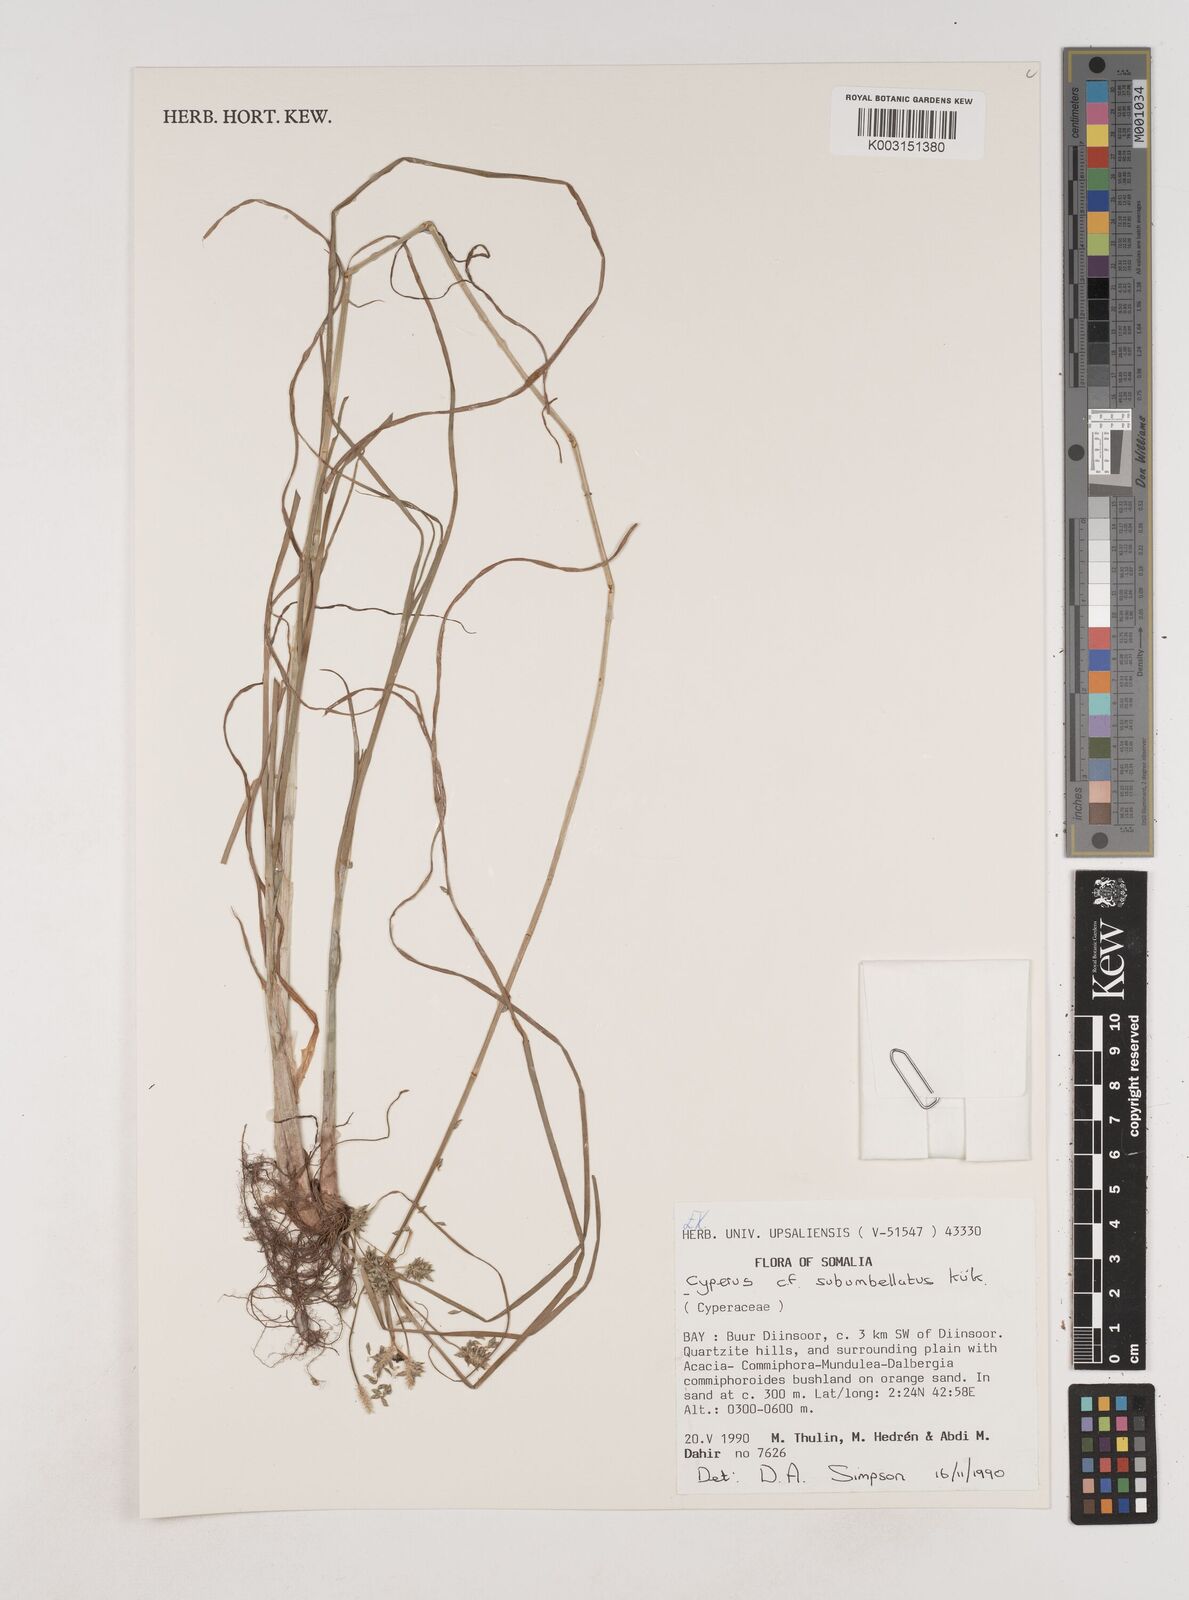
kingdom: Plantae
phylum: Tracheophyta
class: Liliopsida
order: Poales
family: Cyperaceae
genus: Cyperus
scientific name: Cyperus cyperoides
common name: Pacific island flat sedge
